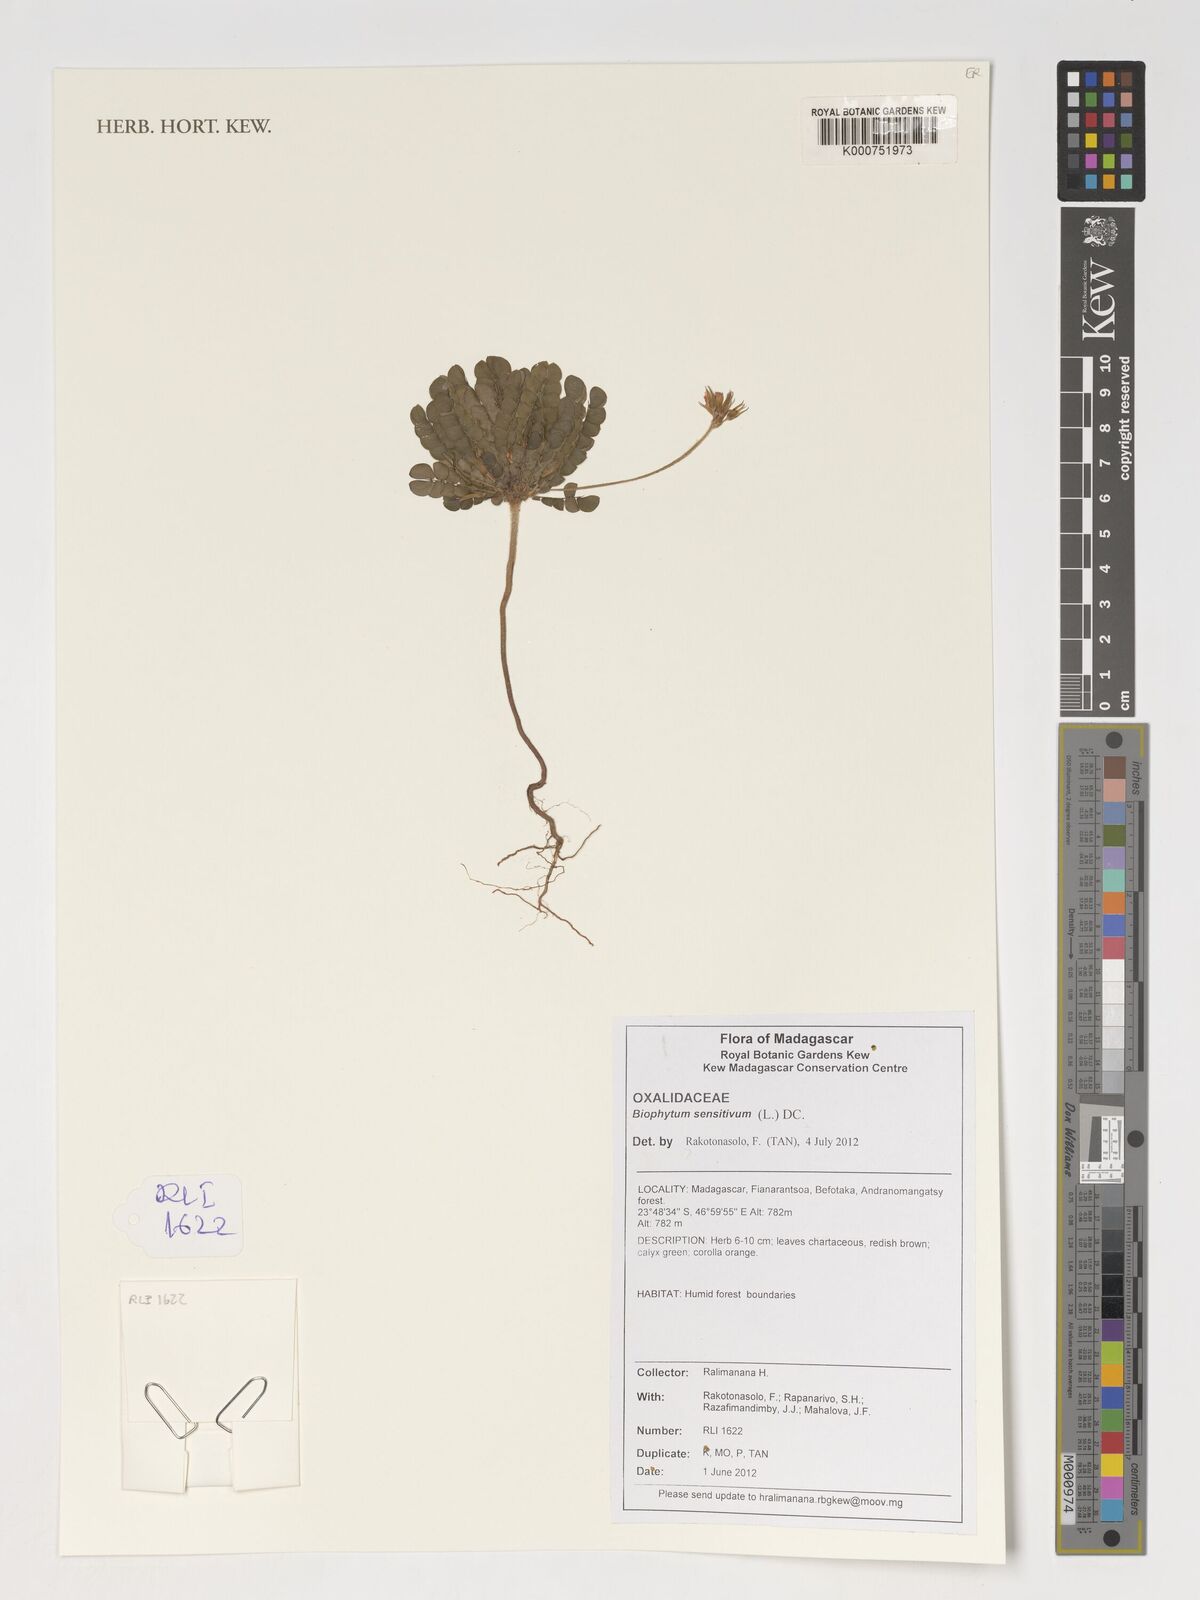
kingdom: Plantae
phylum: Tracheophyta
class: Magnoliopsida
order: Oxalidales
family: Oxalidaceae
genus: Biophytum
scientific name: Biophytum sensitivum
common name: Lifeplant
